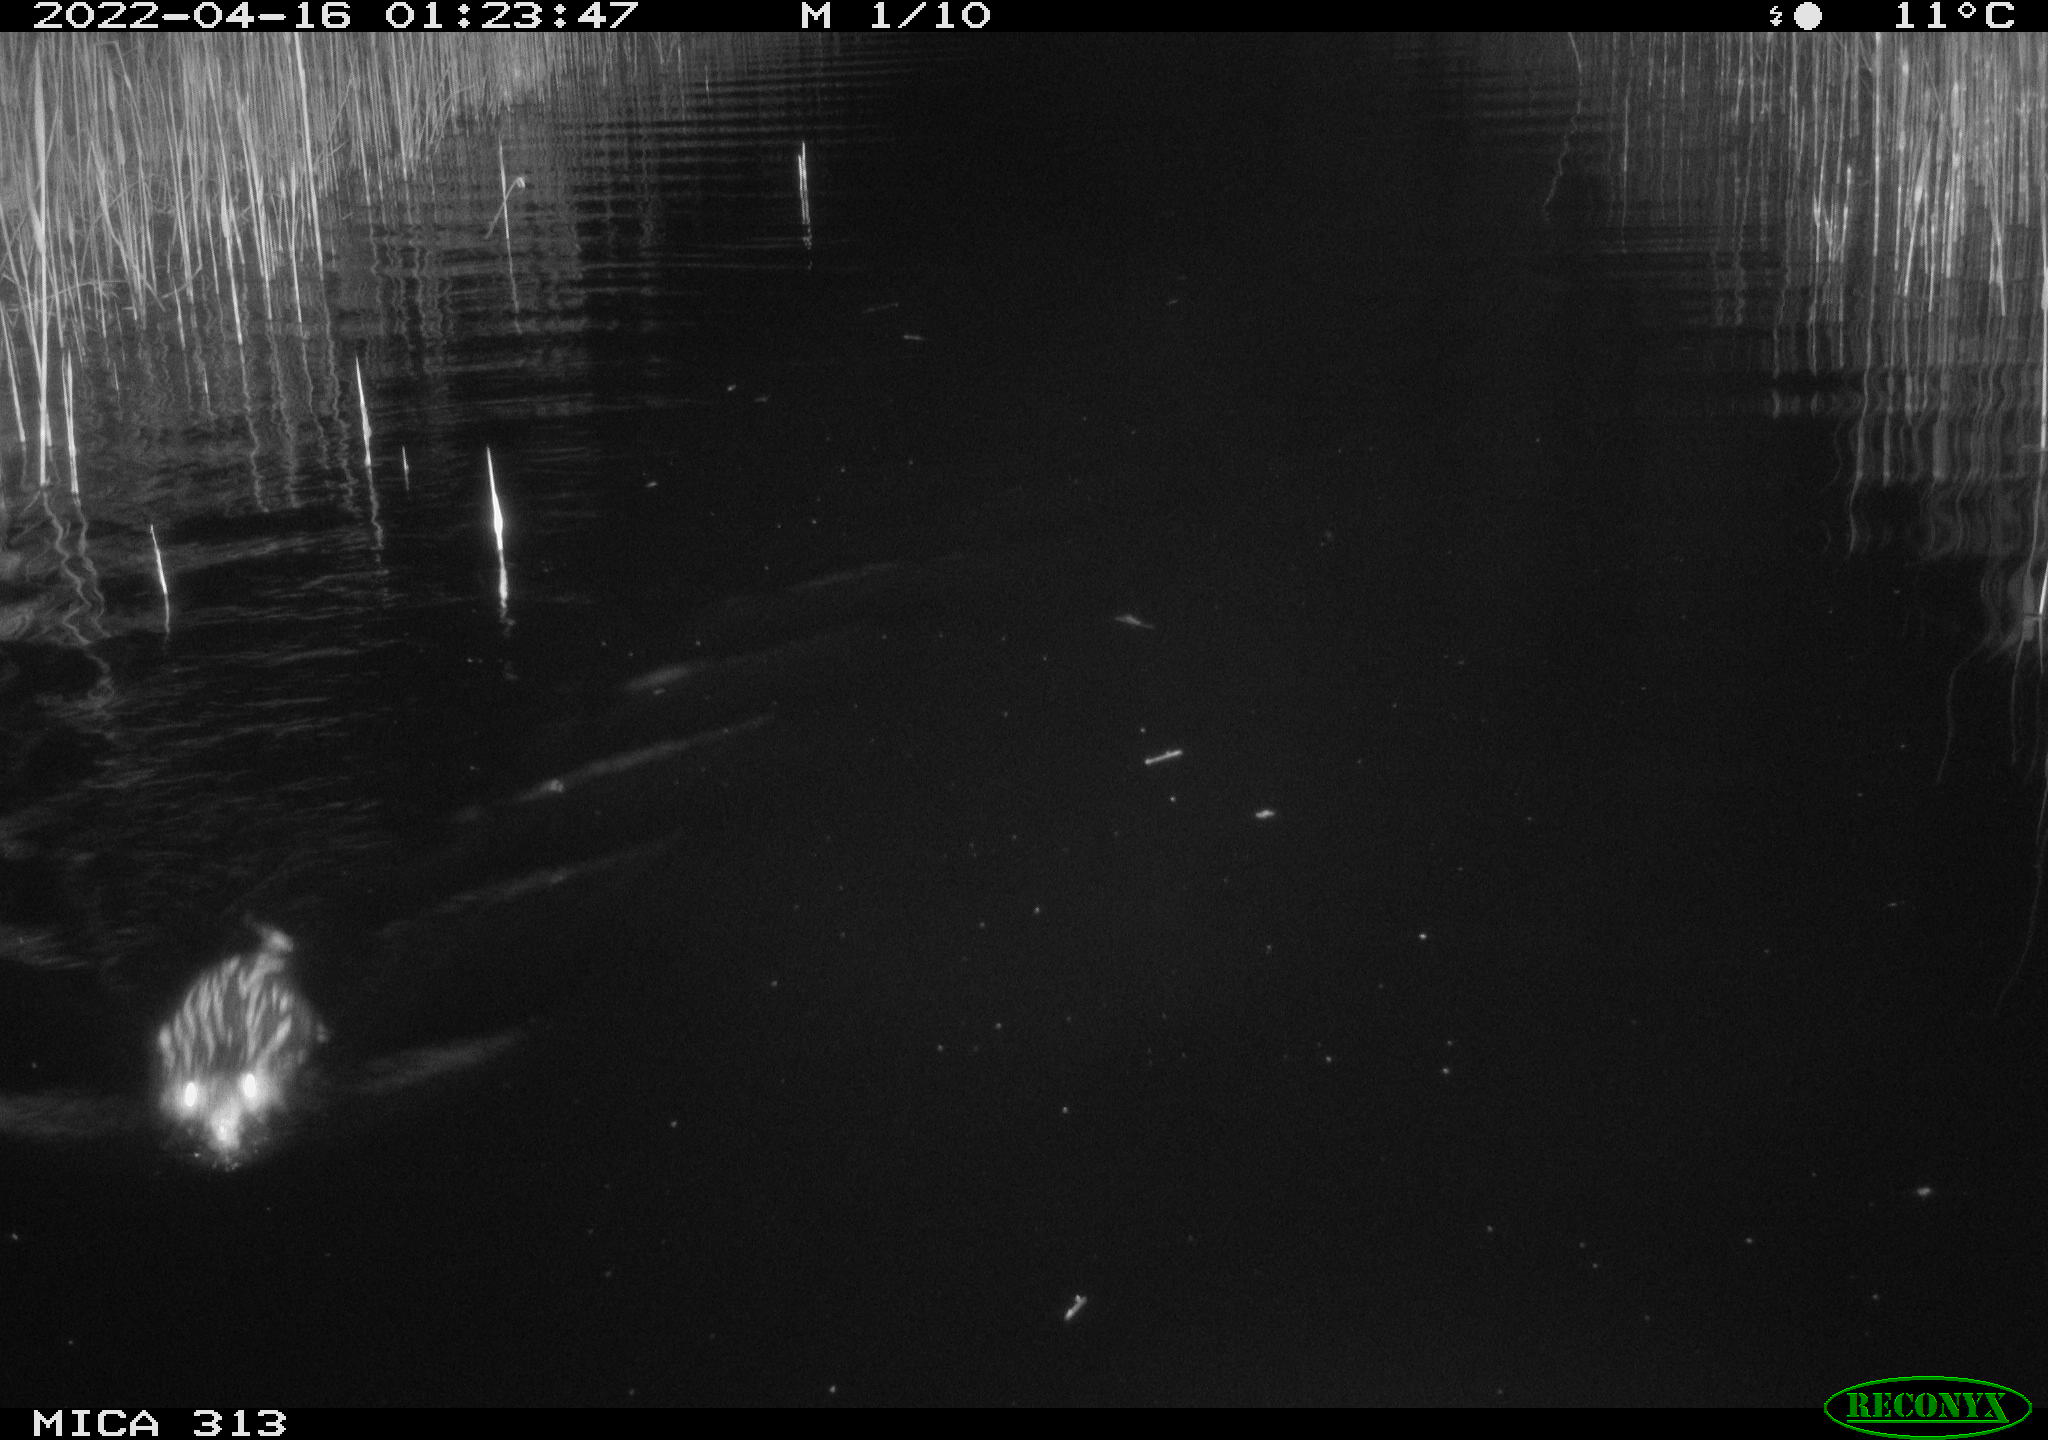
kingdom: Animalia
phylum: Chordata
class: Mammalia
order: Rodentia
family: Cricetidae
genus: Ondatra
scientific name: Ondatra zibethicus
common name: Muskrat
